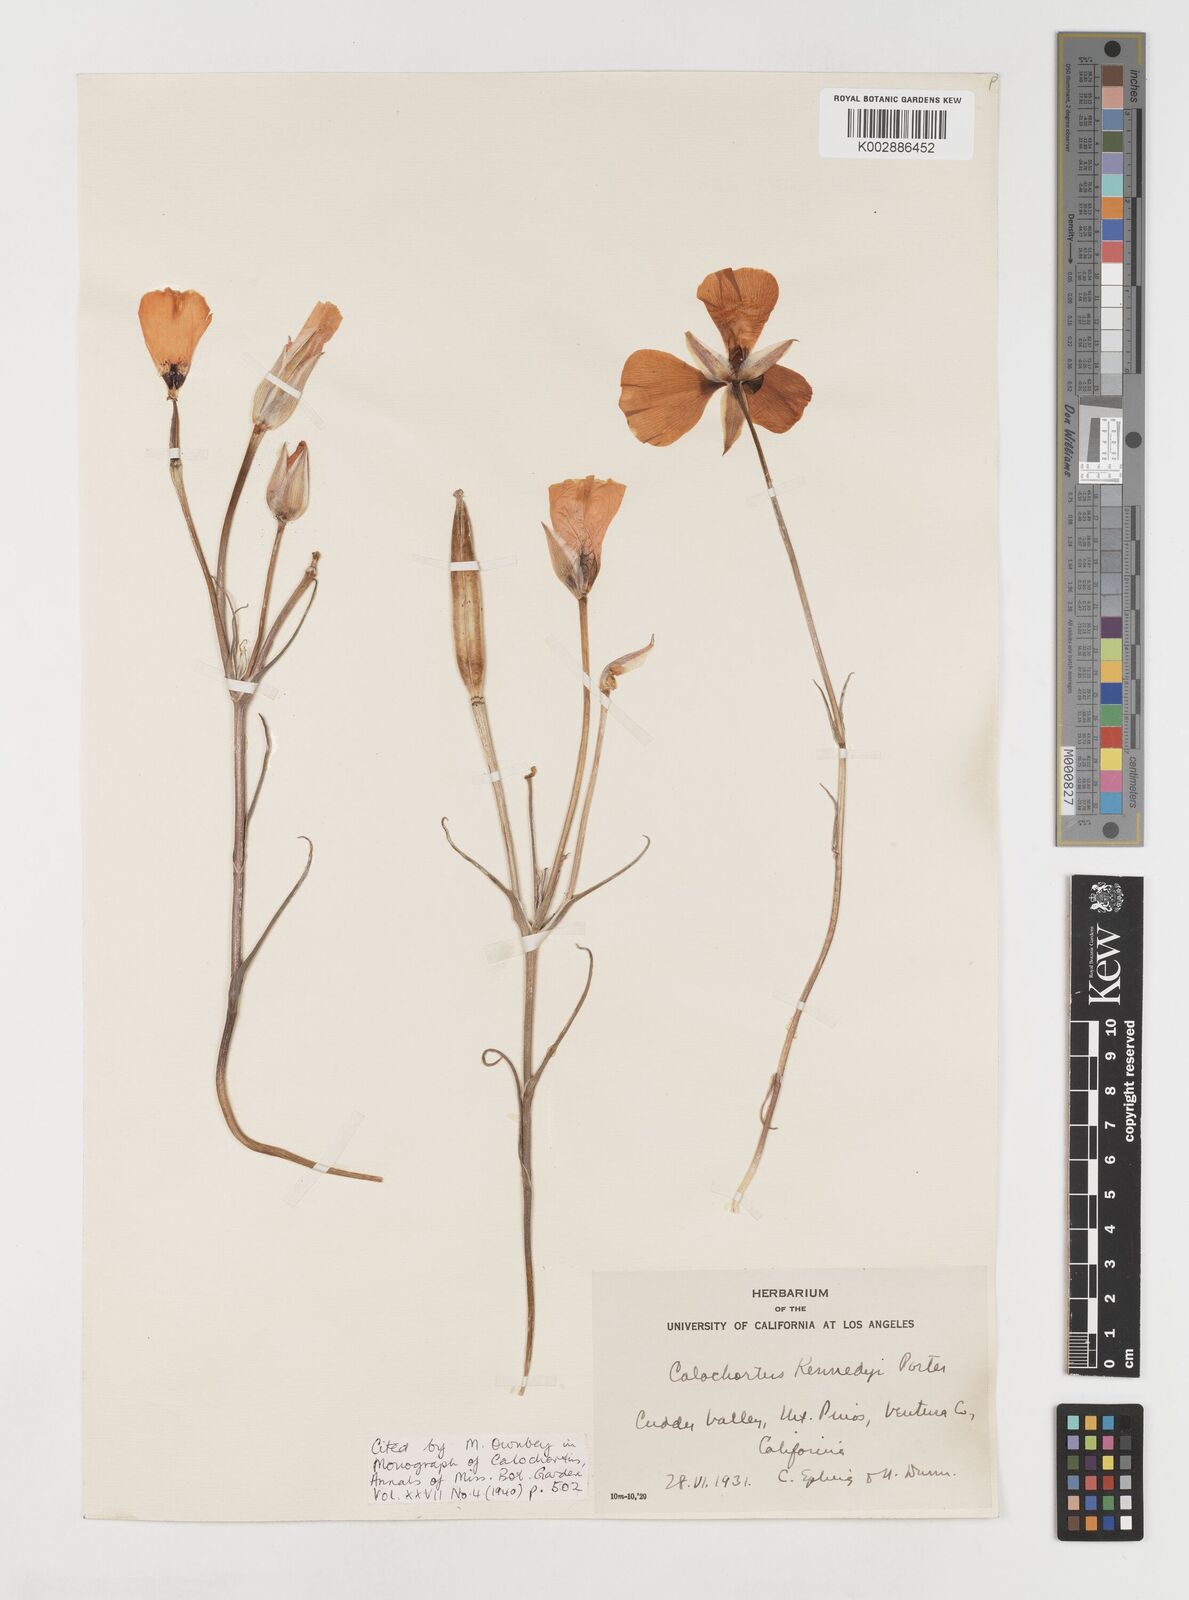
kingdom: Plantae
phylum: Tracheophyta
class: Liliopsida
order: Liliales
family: Liliaceae
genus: Calochortus
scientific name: Calochortus kennedyi
